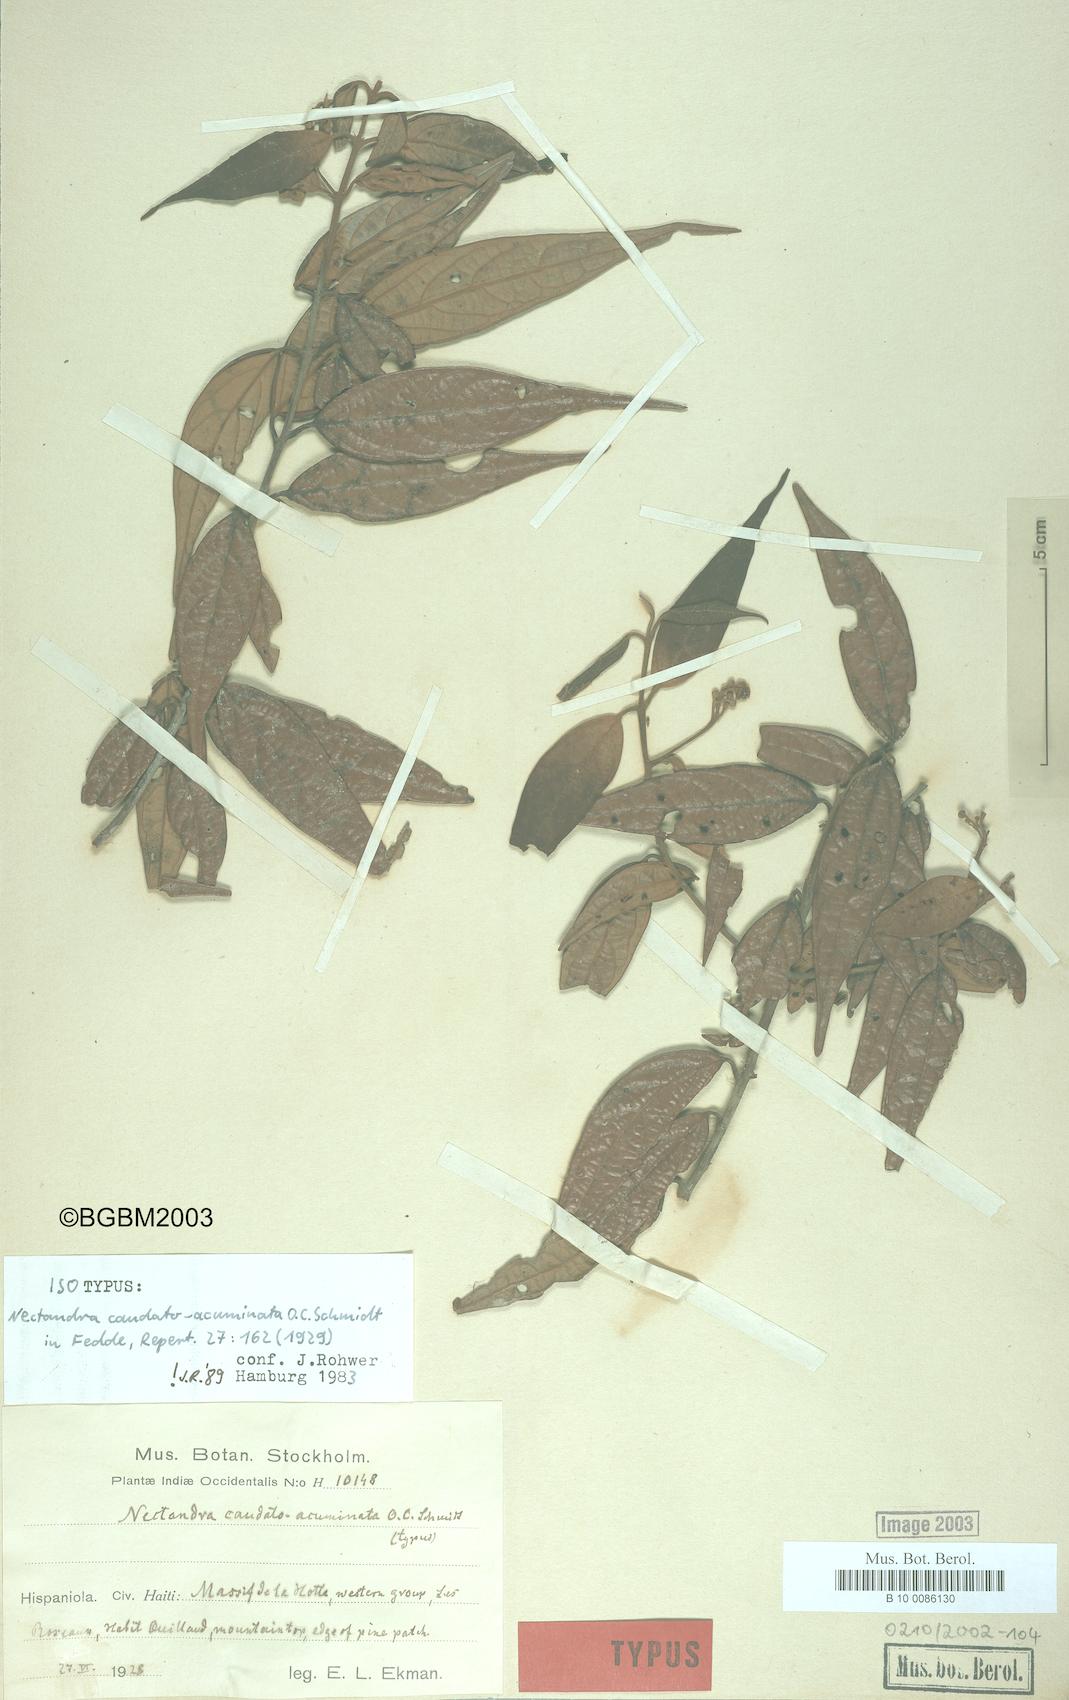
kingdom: Plantae
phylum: Tracheophyta
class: Magnoliopsida
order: Laurales
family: Lauraceae
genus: Nectandra
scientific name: Nectandra caudatoacuminata
